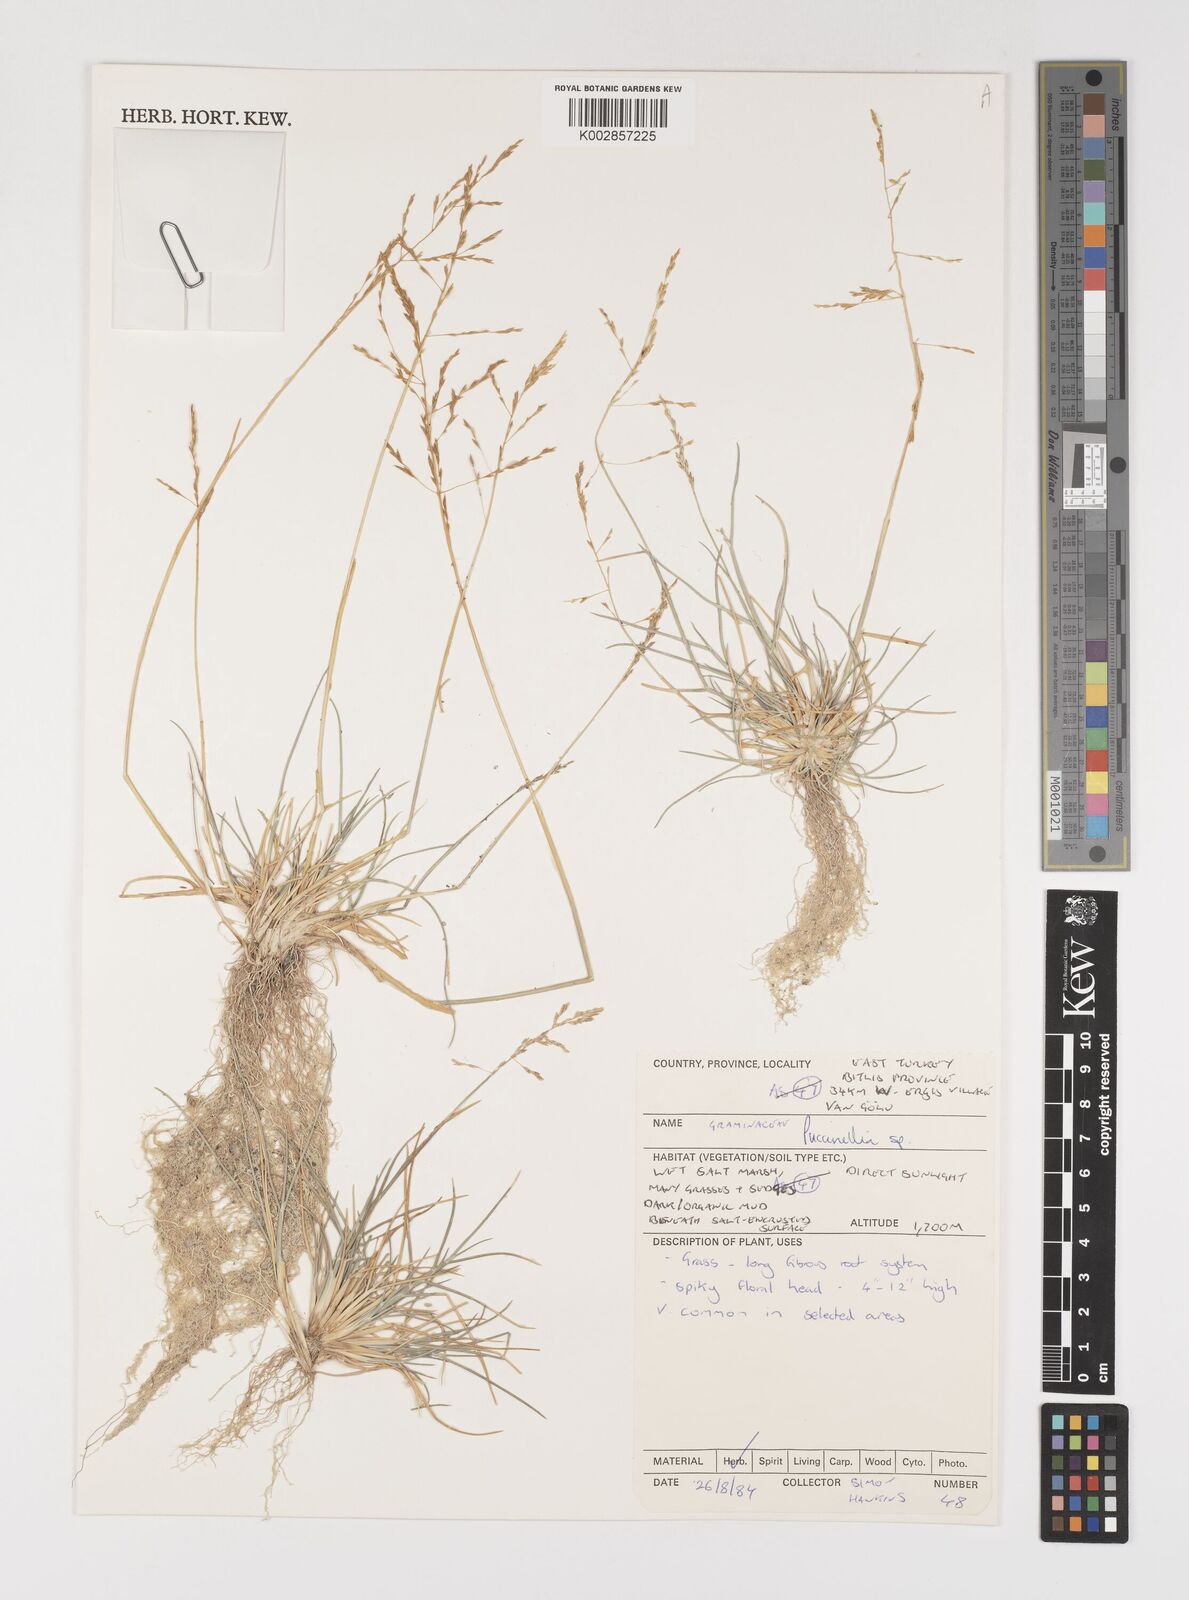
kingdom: Plantae
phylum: Tracheophyta
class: Liliopsida
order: Poales
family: Poaceae
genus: Puccinellia
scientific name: Puccinellia
